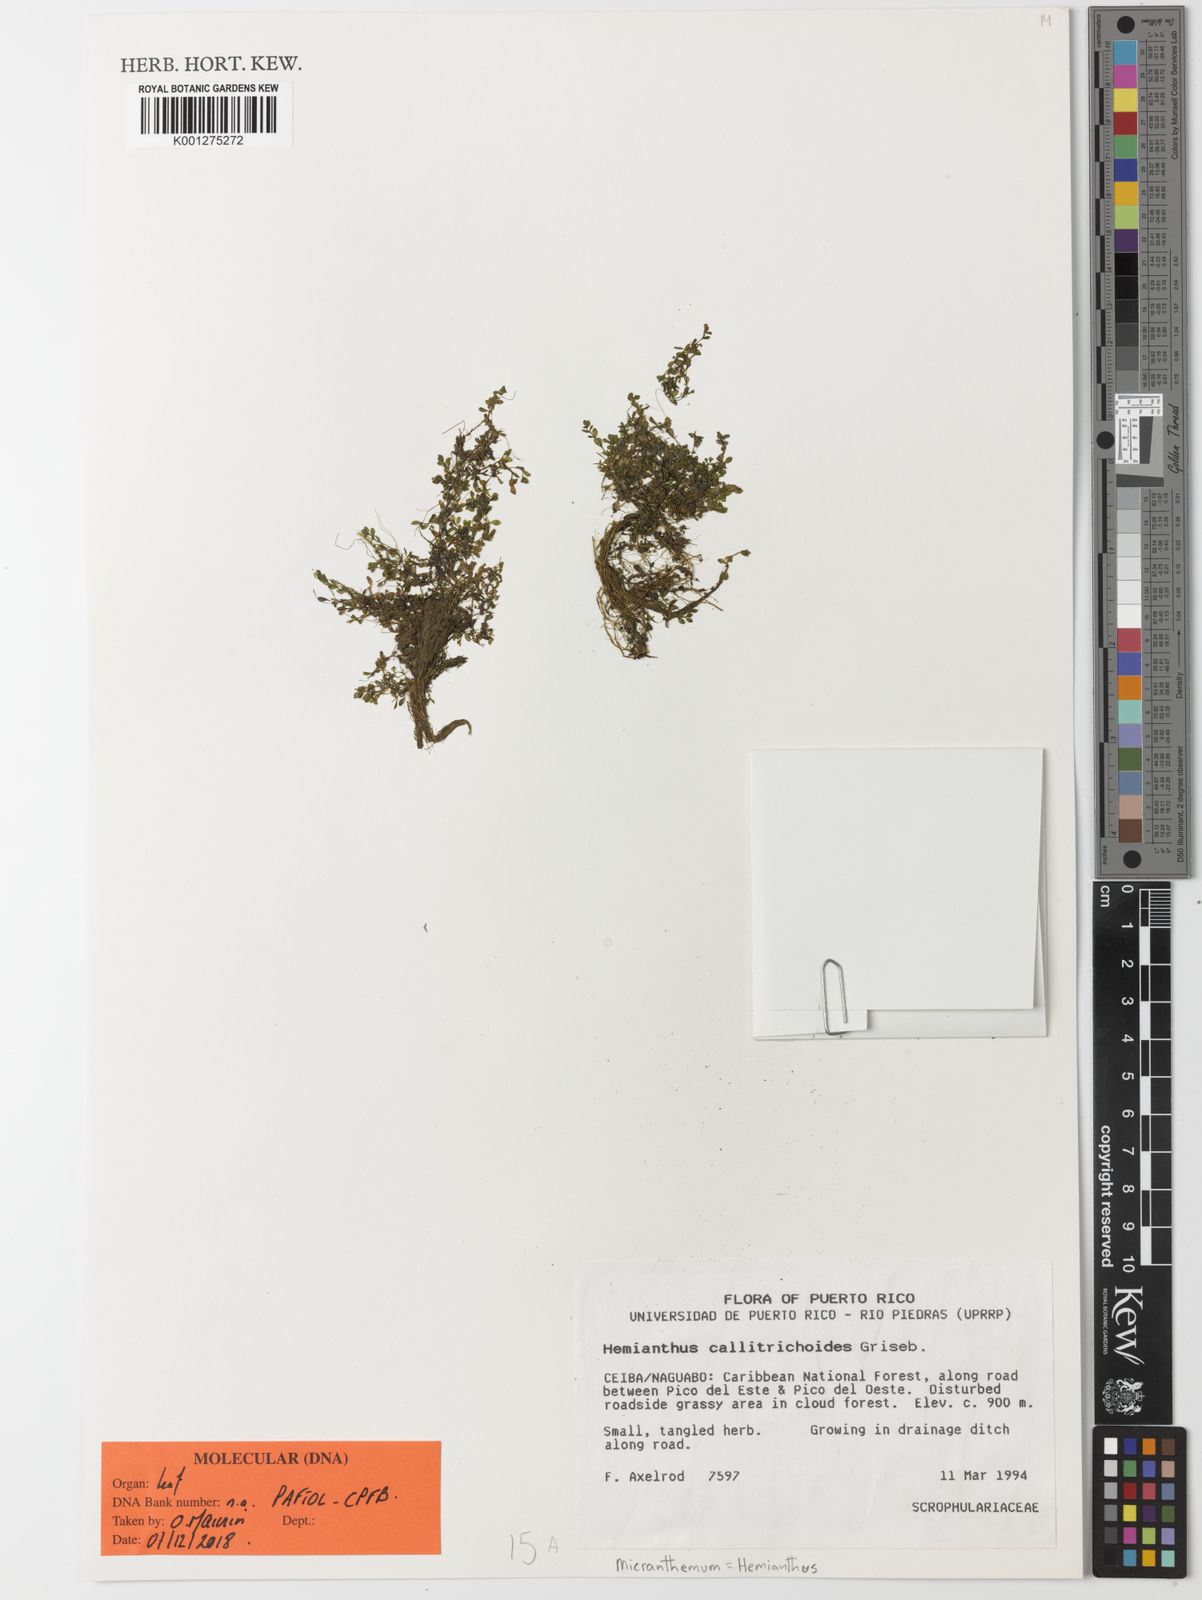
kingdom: Plantae
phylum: Tracheophyta
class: Magnoliopsida
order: Lamiales
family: Linderniaceae
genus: Micranthemum
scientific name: Micranthemum callitrichoides
